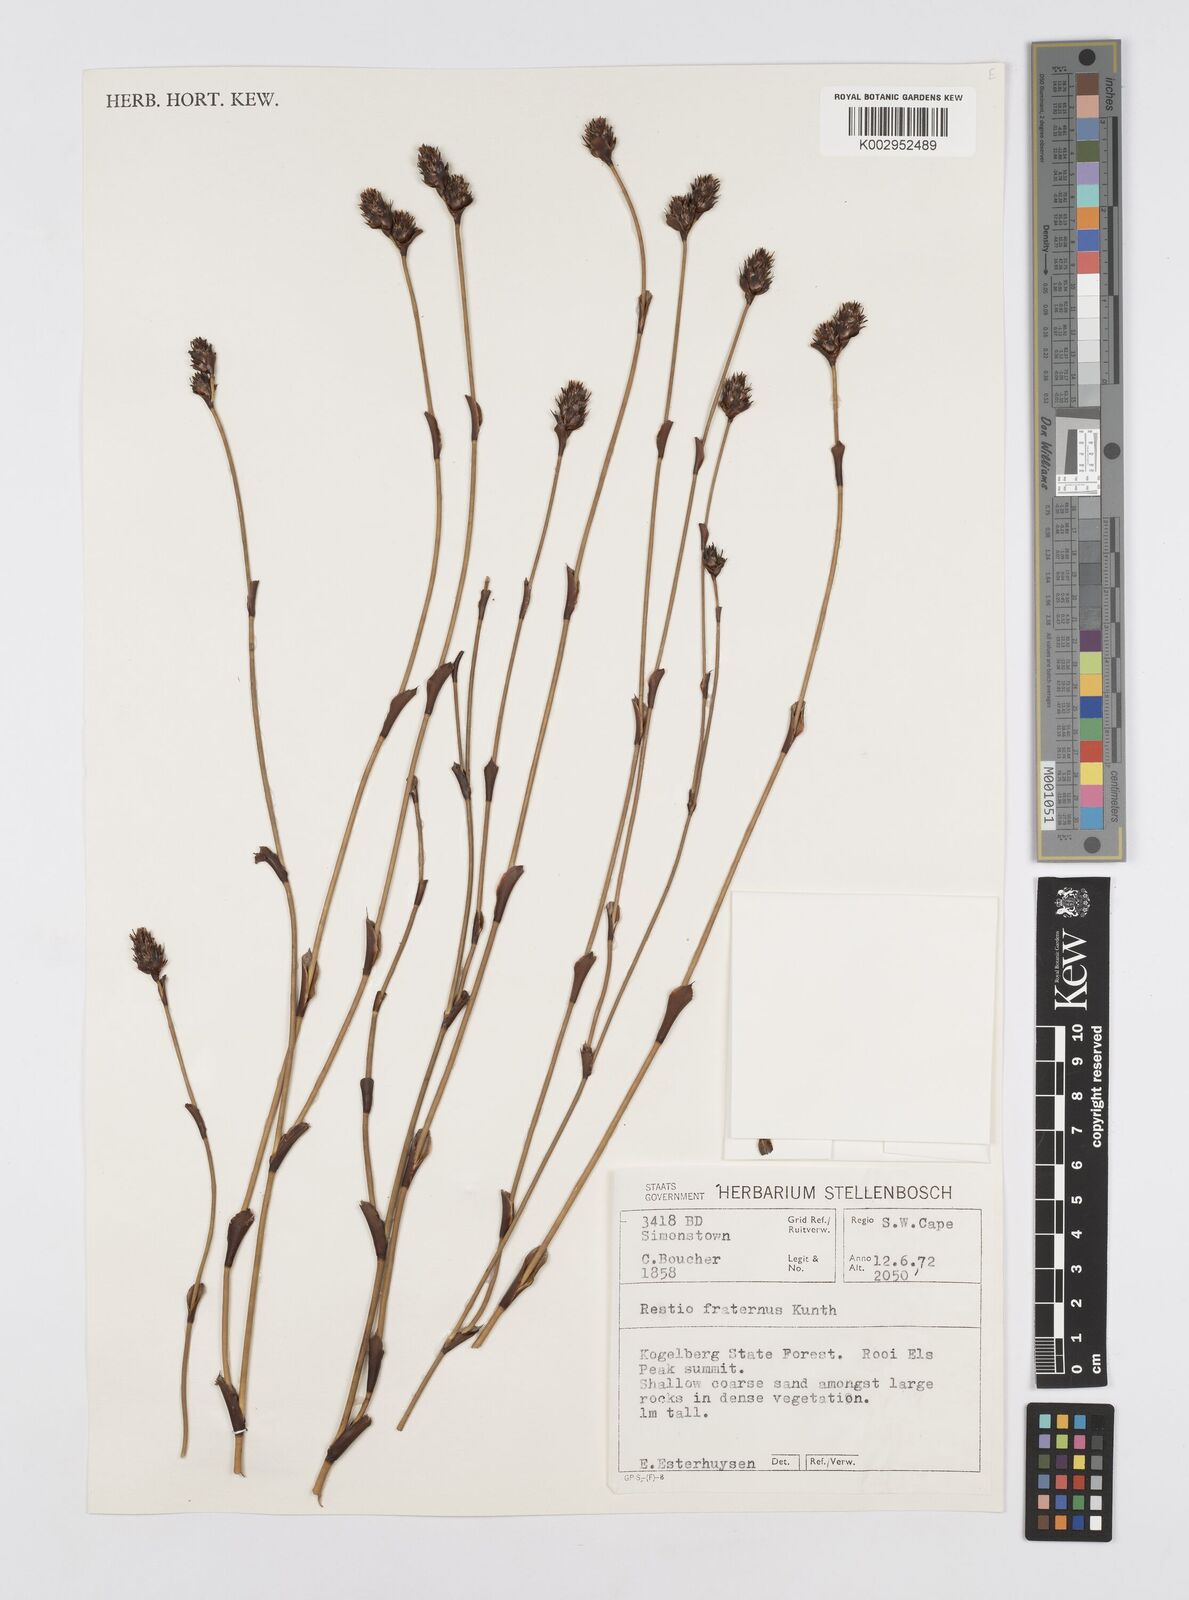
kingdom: Plantae
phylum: Tracheophyta
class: Liliopsida
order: Poales
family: Restionaceae
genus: Restio
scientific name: Restio fraternus
